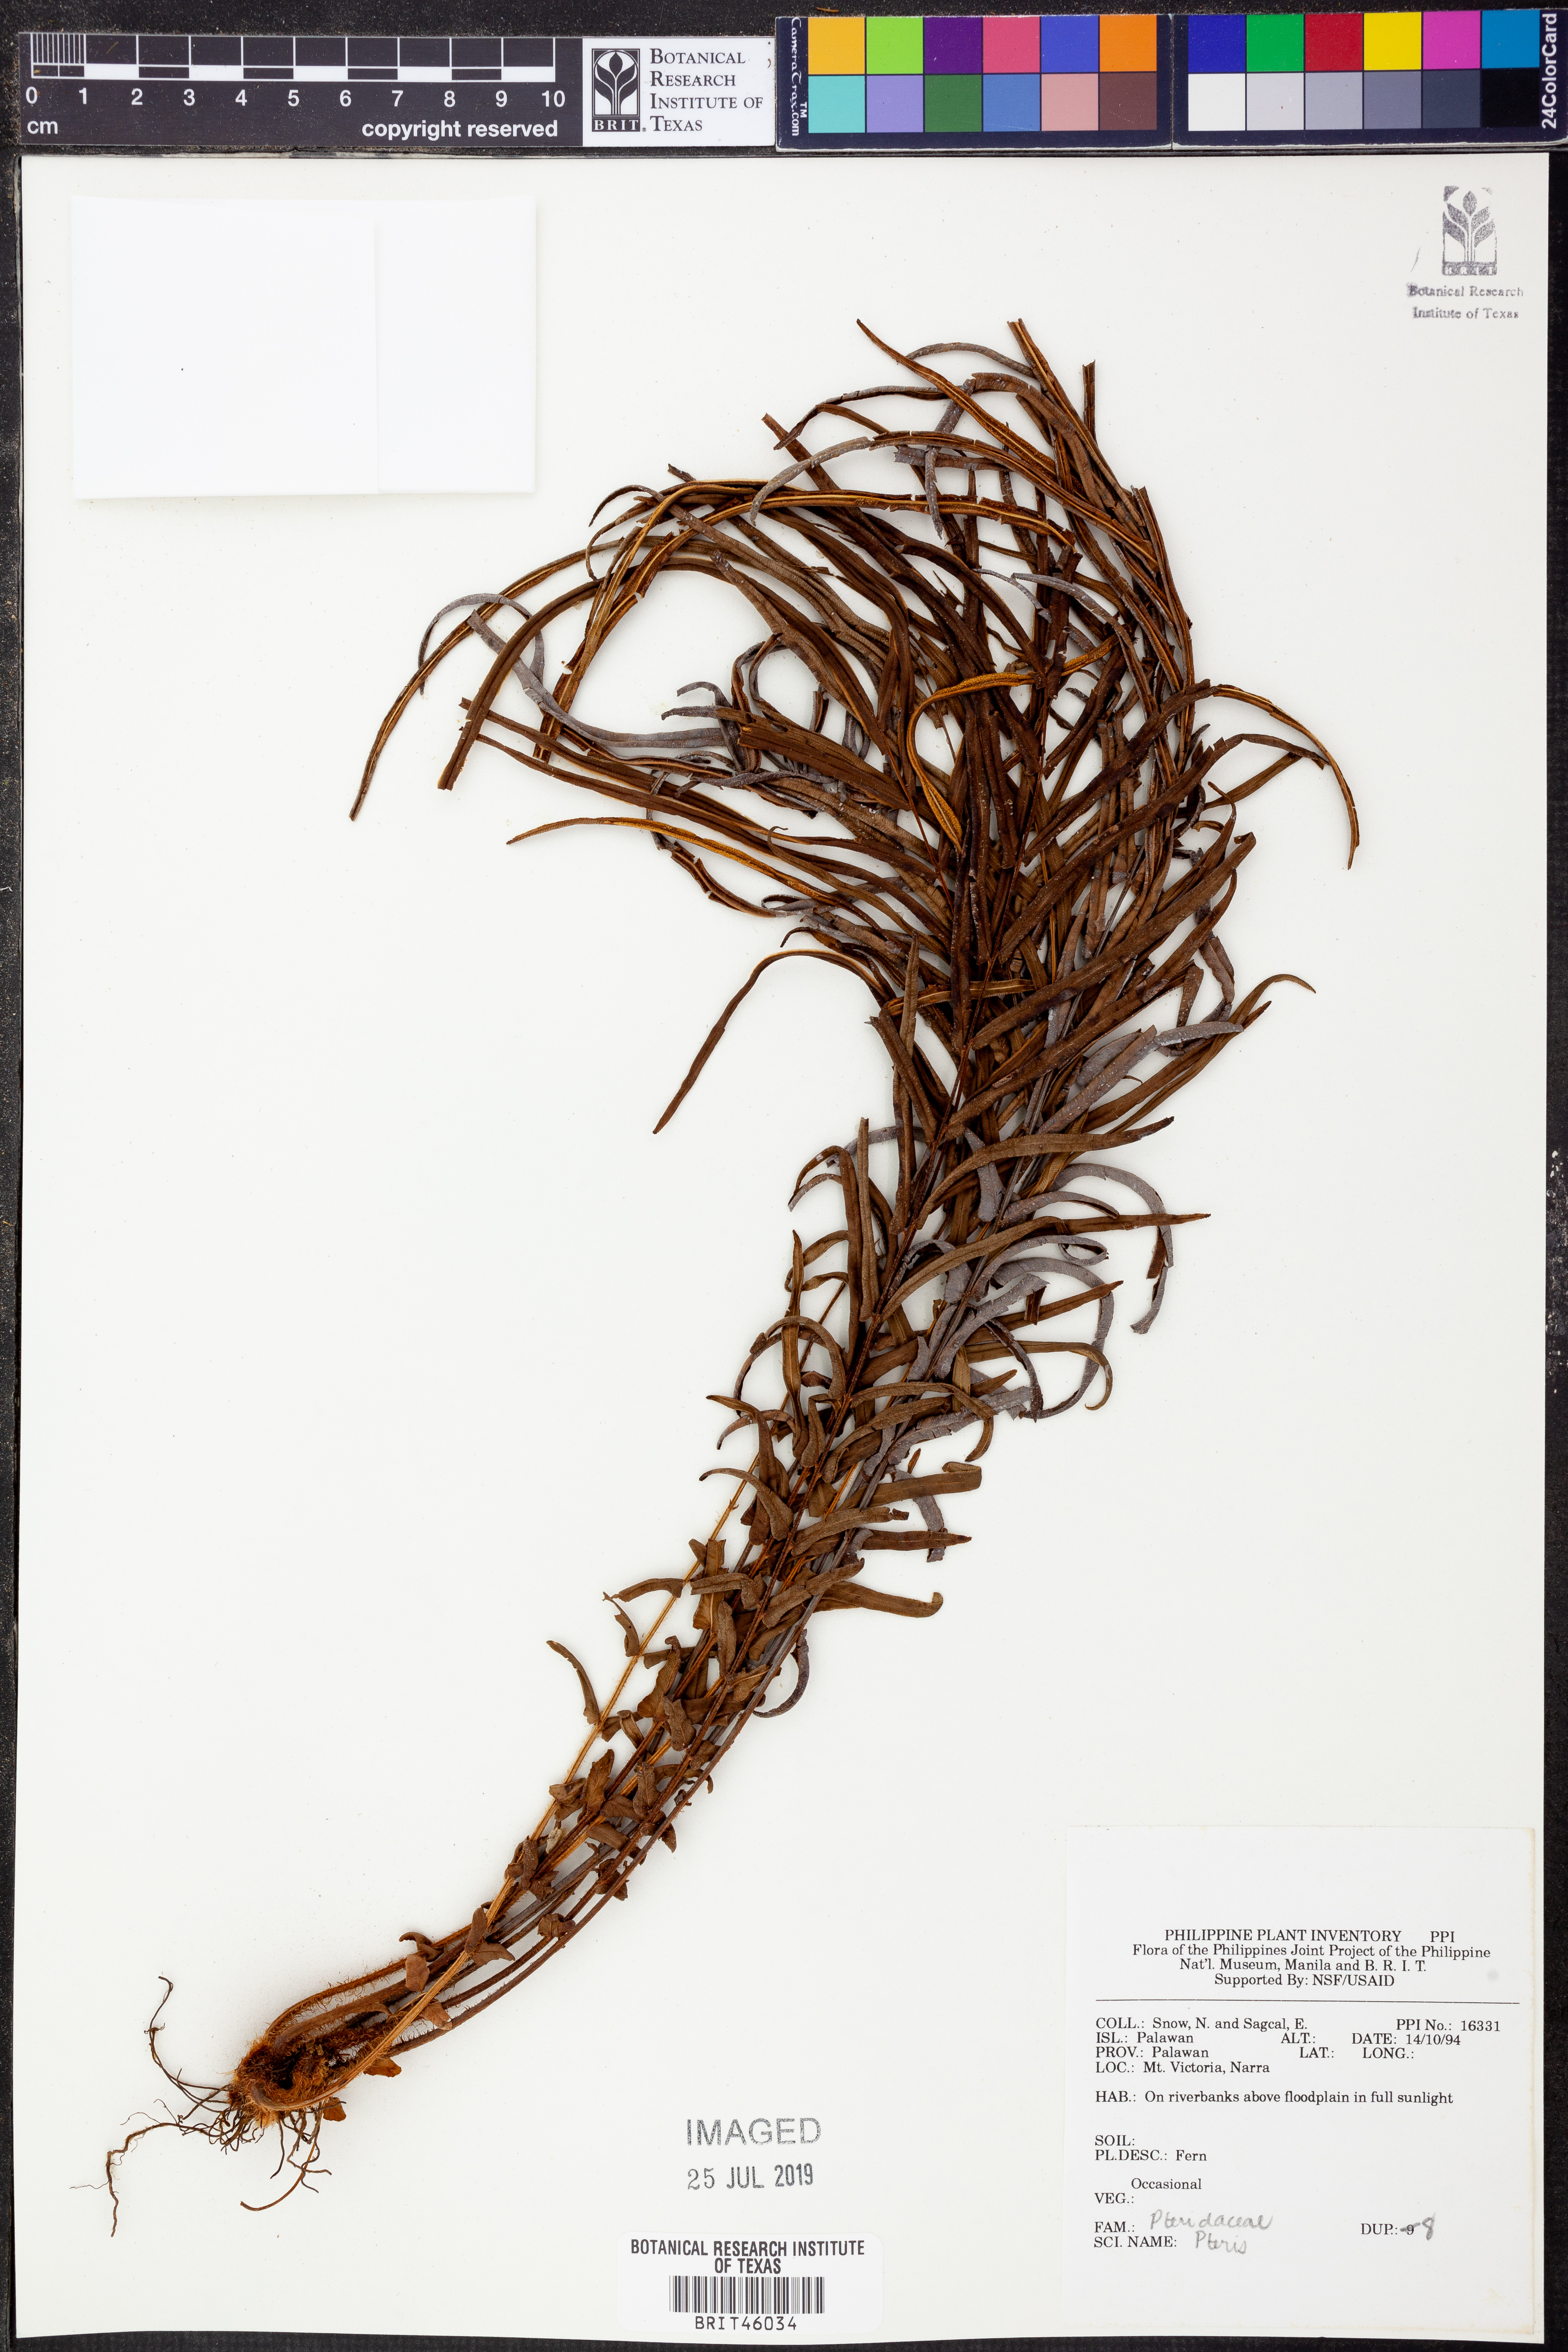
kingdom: Plantae
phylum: Tracheophyta
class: Polypodiopsida
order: Polypodiales
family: Pteridaceae
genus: Pteris
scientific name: Pteris
